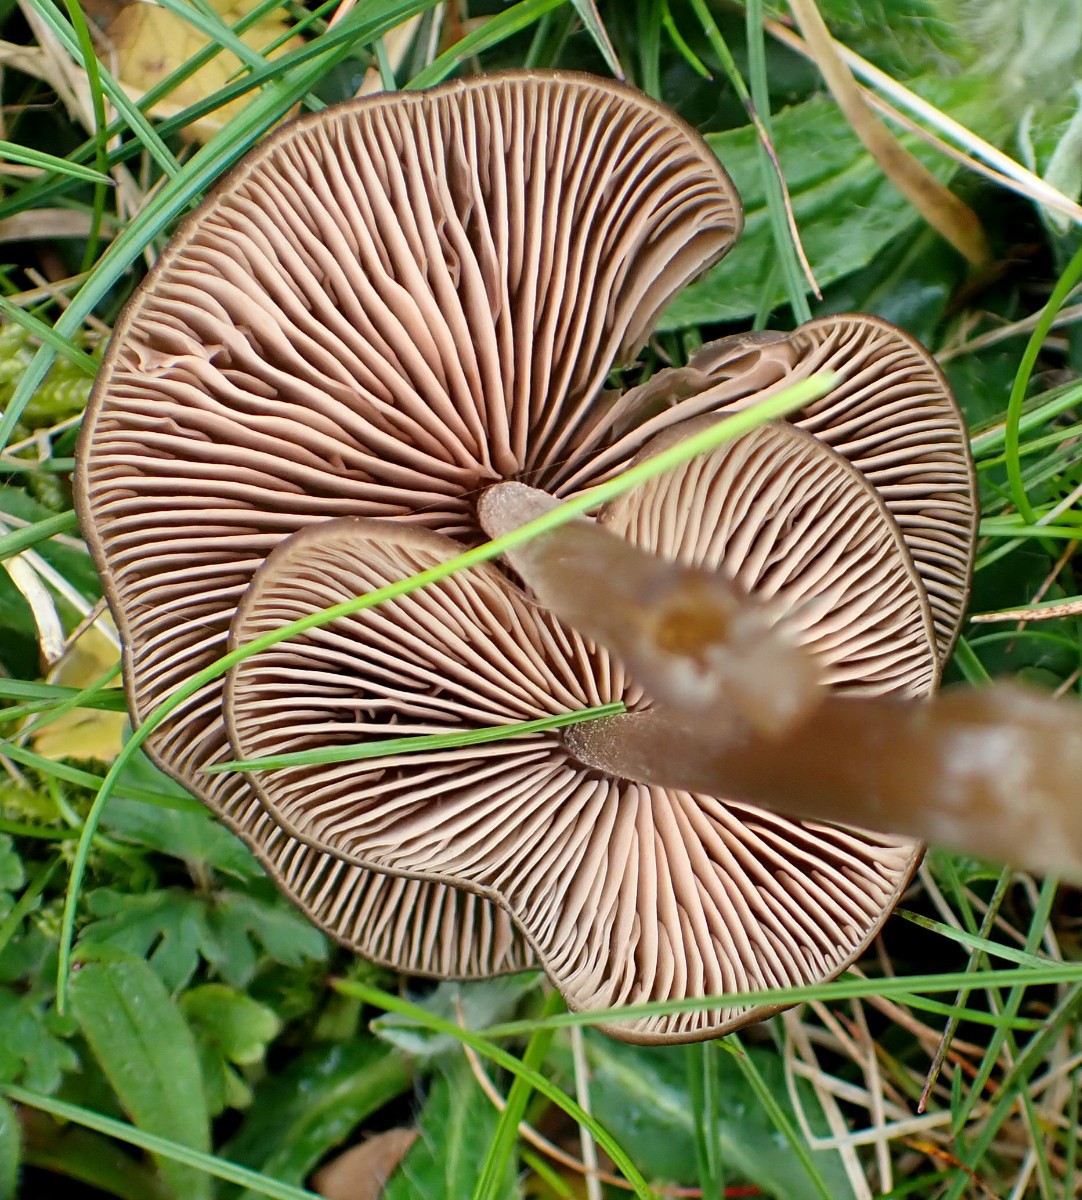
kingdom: Fungi
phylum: Basidiomycota
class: Agaricomycetes
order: Agaricales
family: Entolomataceae
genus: Entoloma
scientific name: Entoloma
